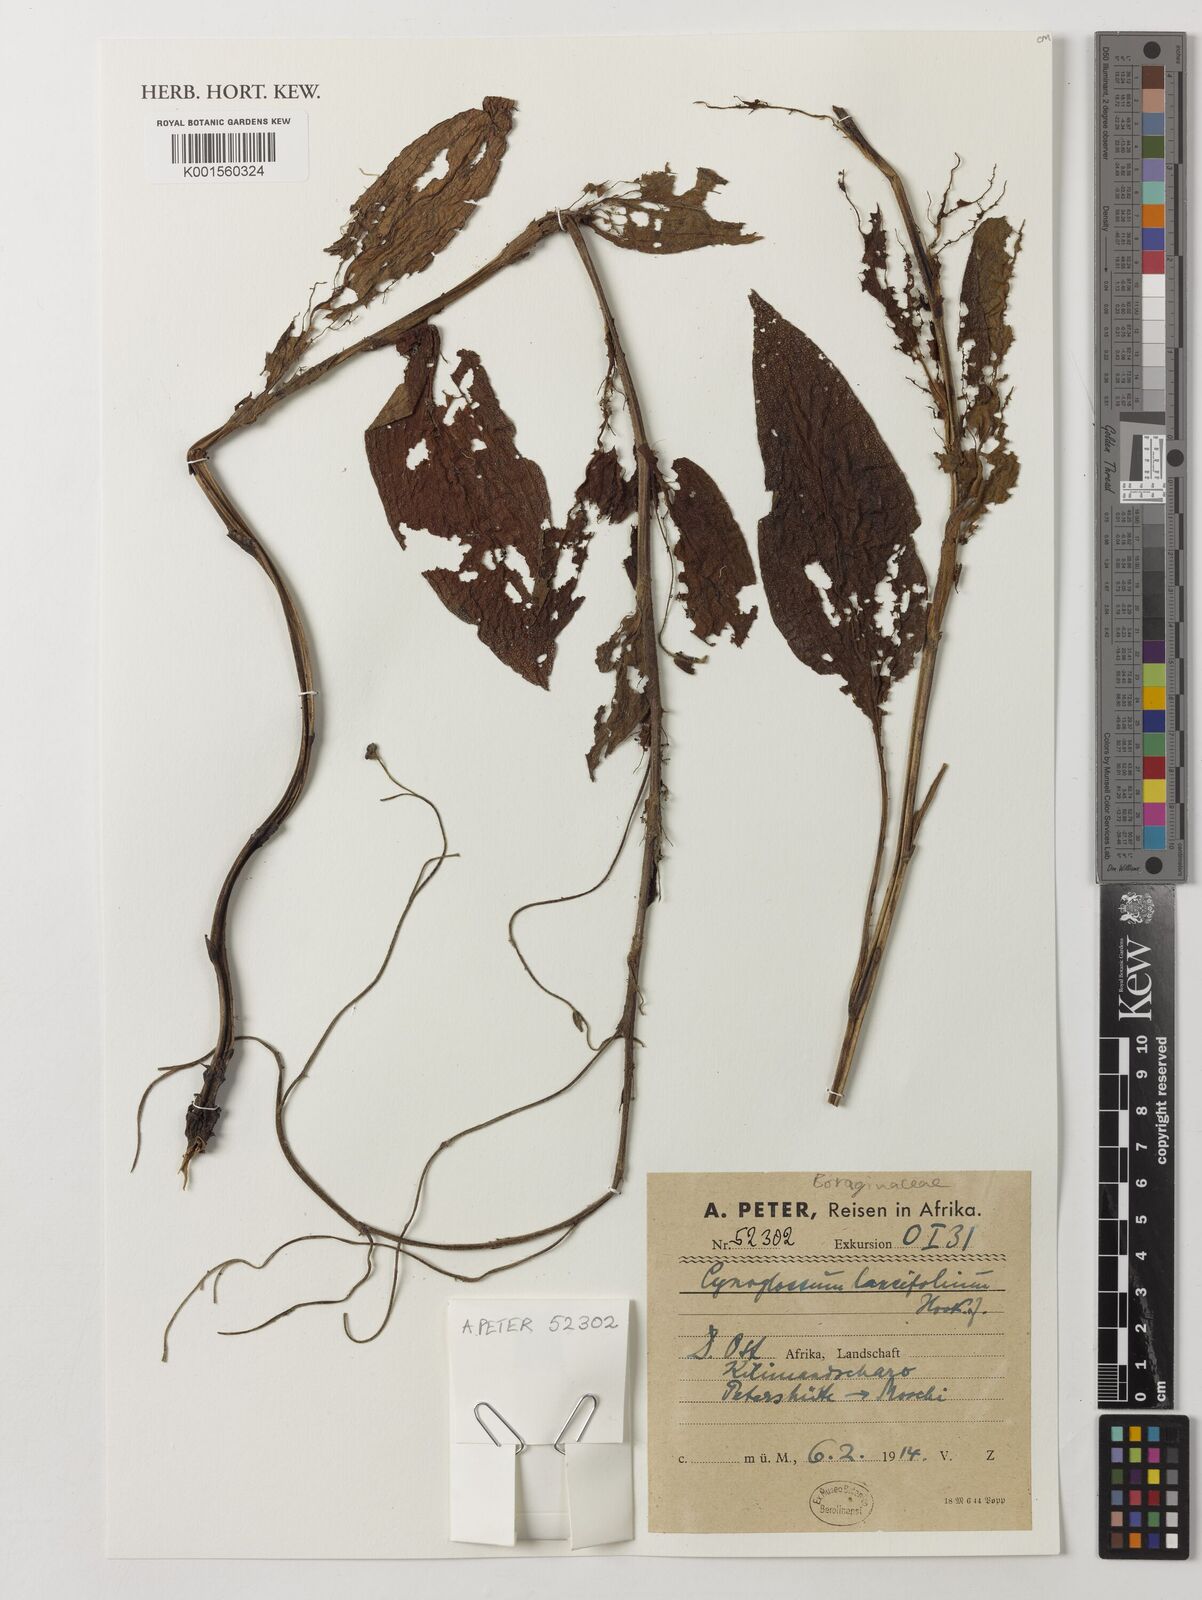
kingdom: Plantae
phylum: Tracheophyta
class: Magnoliopsida
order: Boraginales
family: Boraginaceae
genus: Cynoglossum
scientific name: Cynoglossum amplifolium
